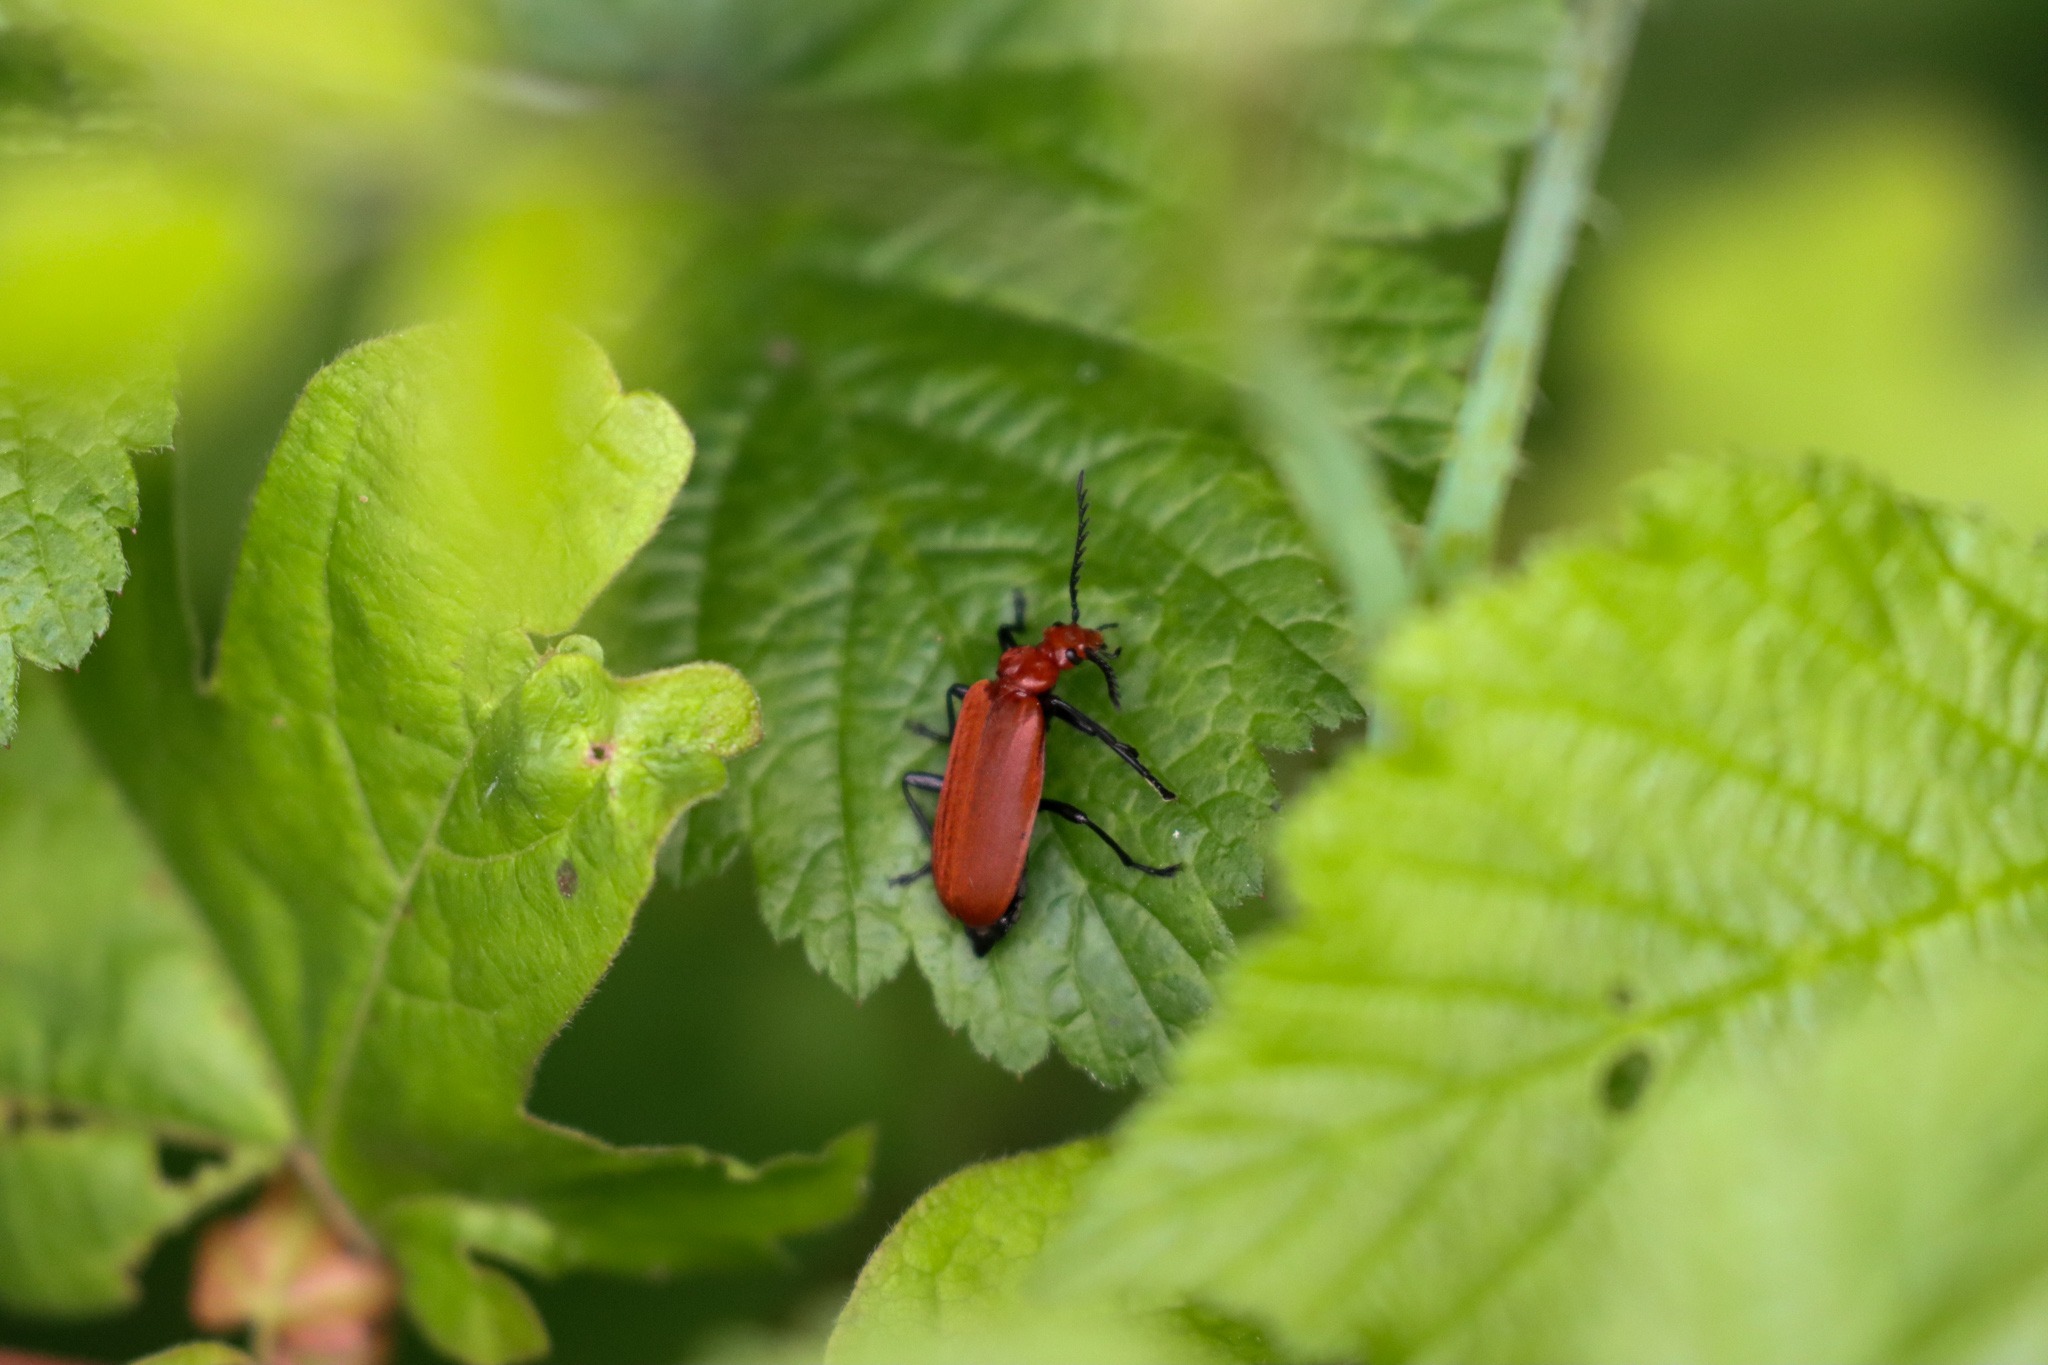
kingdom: Animalia
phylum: Arthropoda
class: Insecta
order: Coleoptera
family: Pyrochroidae
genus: Pyrochroa
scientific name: Pyrochroa serraticornis
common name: Rødhovedet kardinalbille
